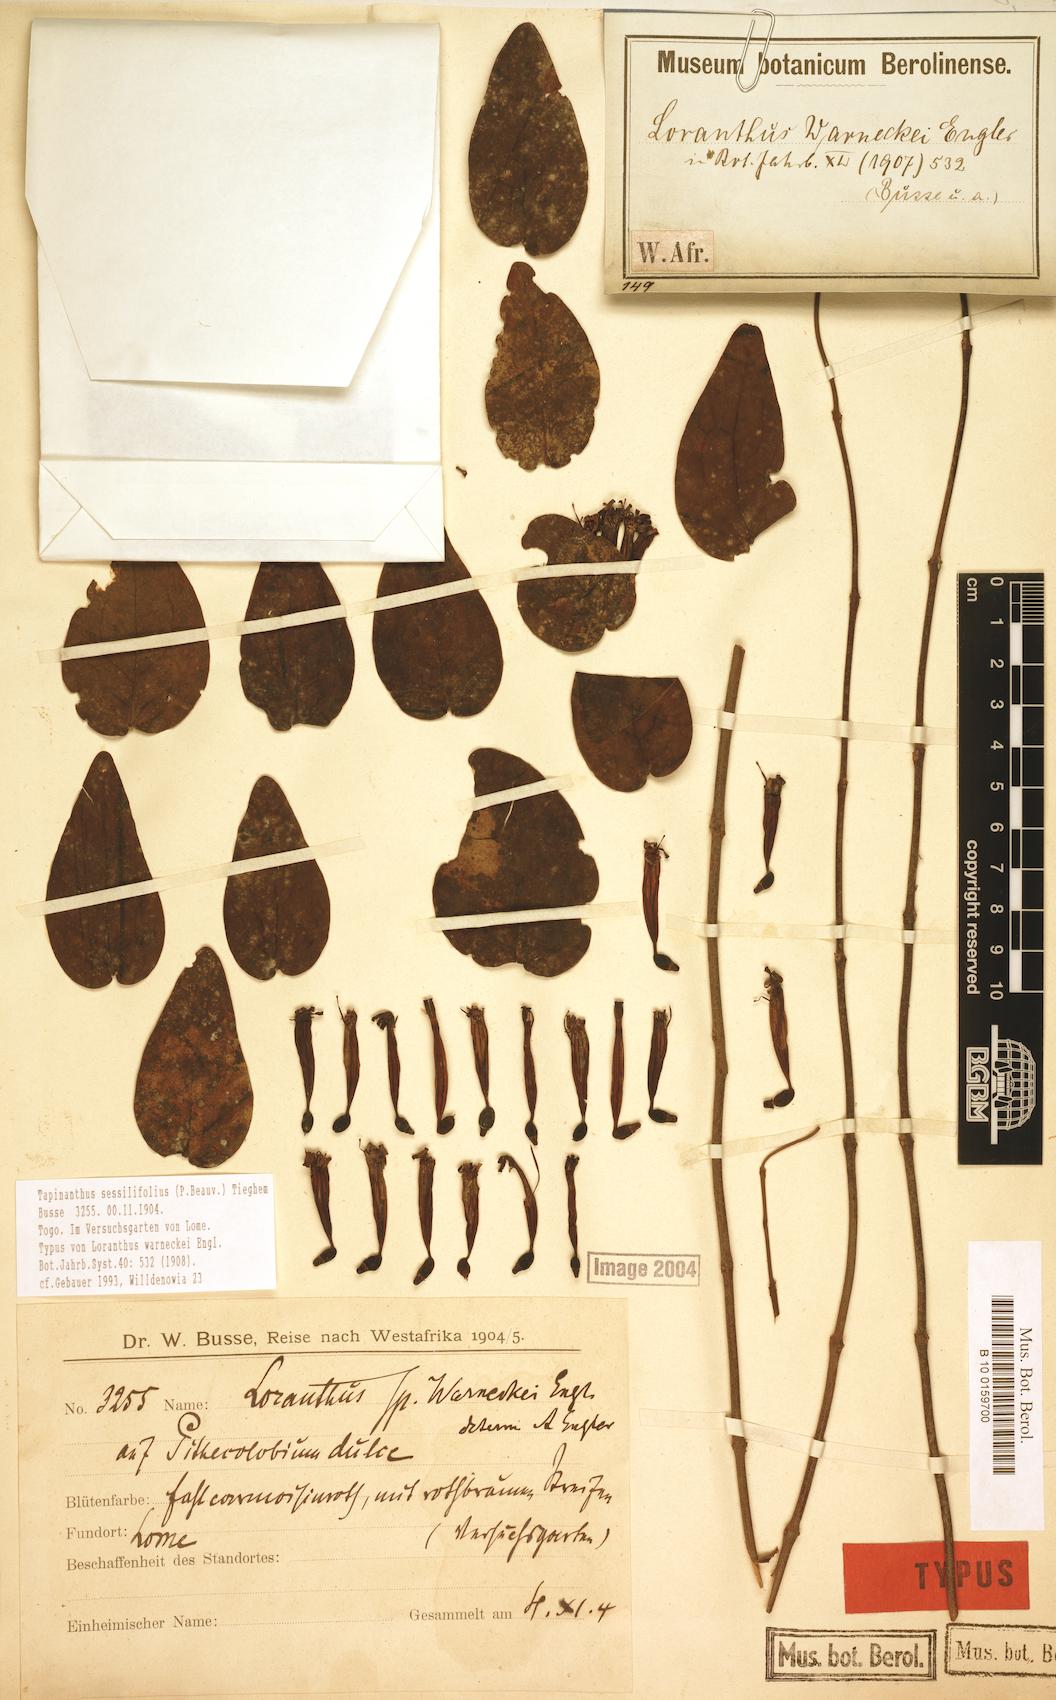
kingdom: Plantae
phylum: Tracheophyta
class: Magnoliopsida
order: Santalales
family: Loranthaceae
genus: Tapinanthus
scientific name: Tapinanthus sessilifolius
